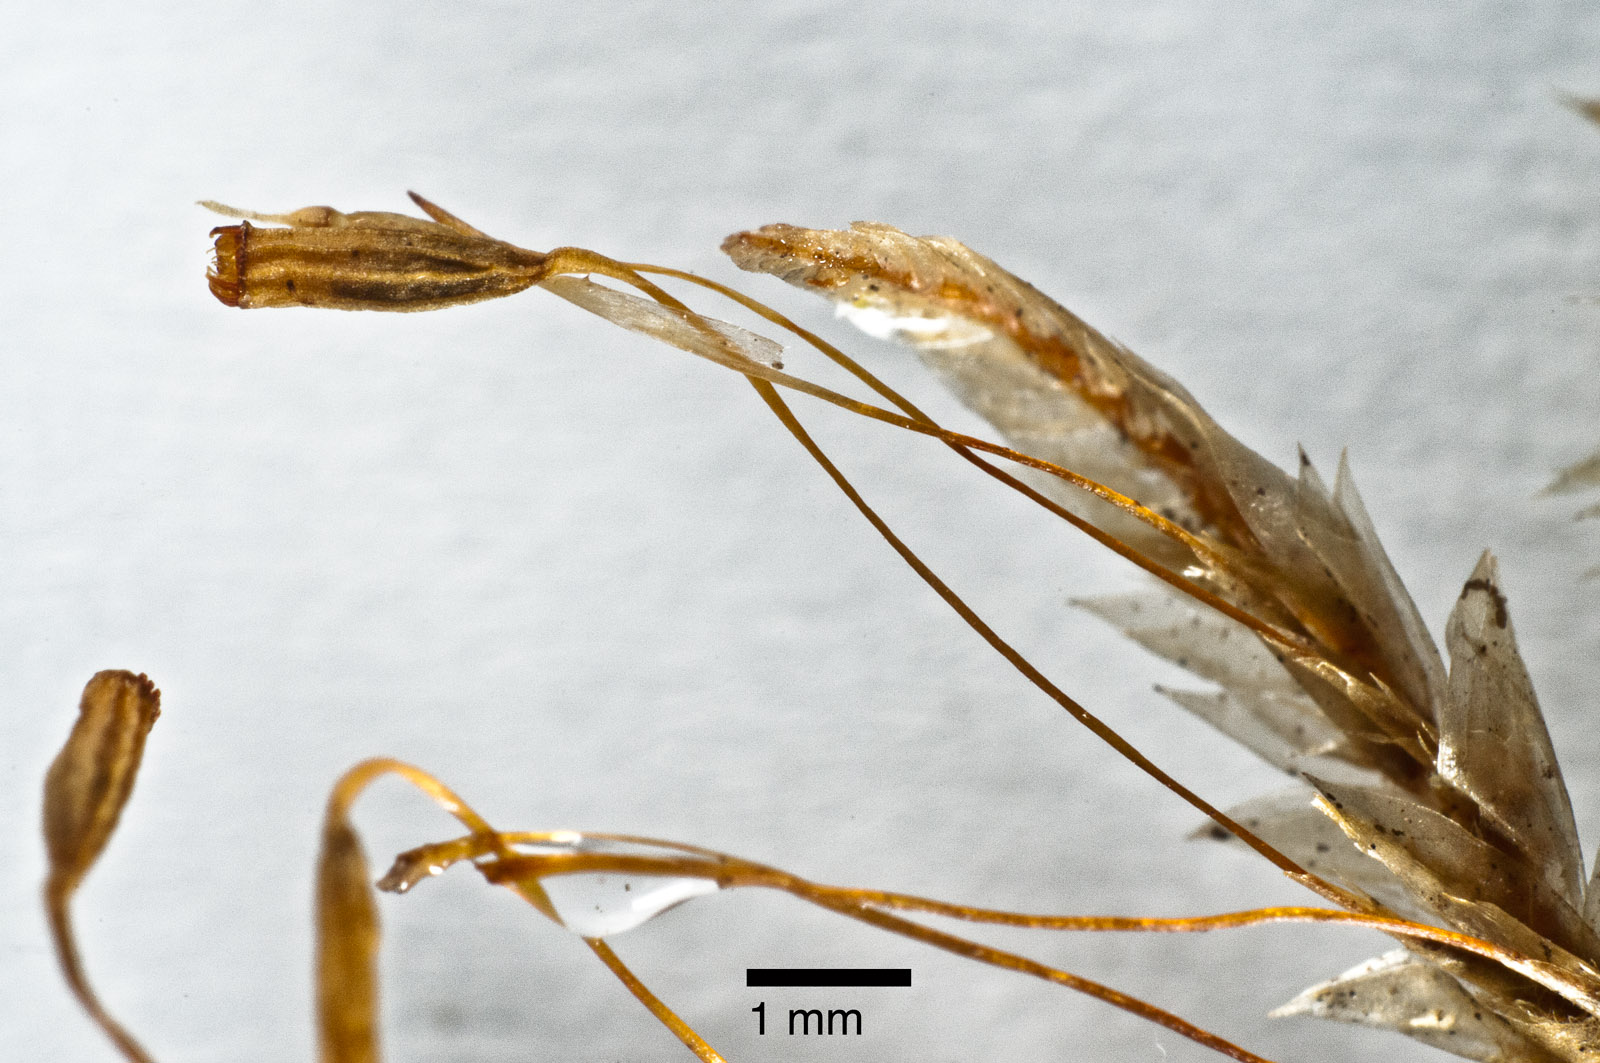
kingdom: Plantae
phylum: Bryophyta
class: Bryopsida
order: Ptychomniales
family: Ptychomniaceae
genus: Hampeella
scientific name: Hampeella pallens
